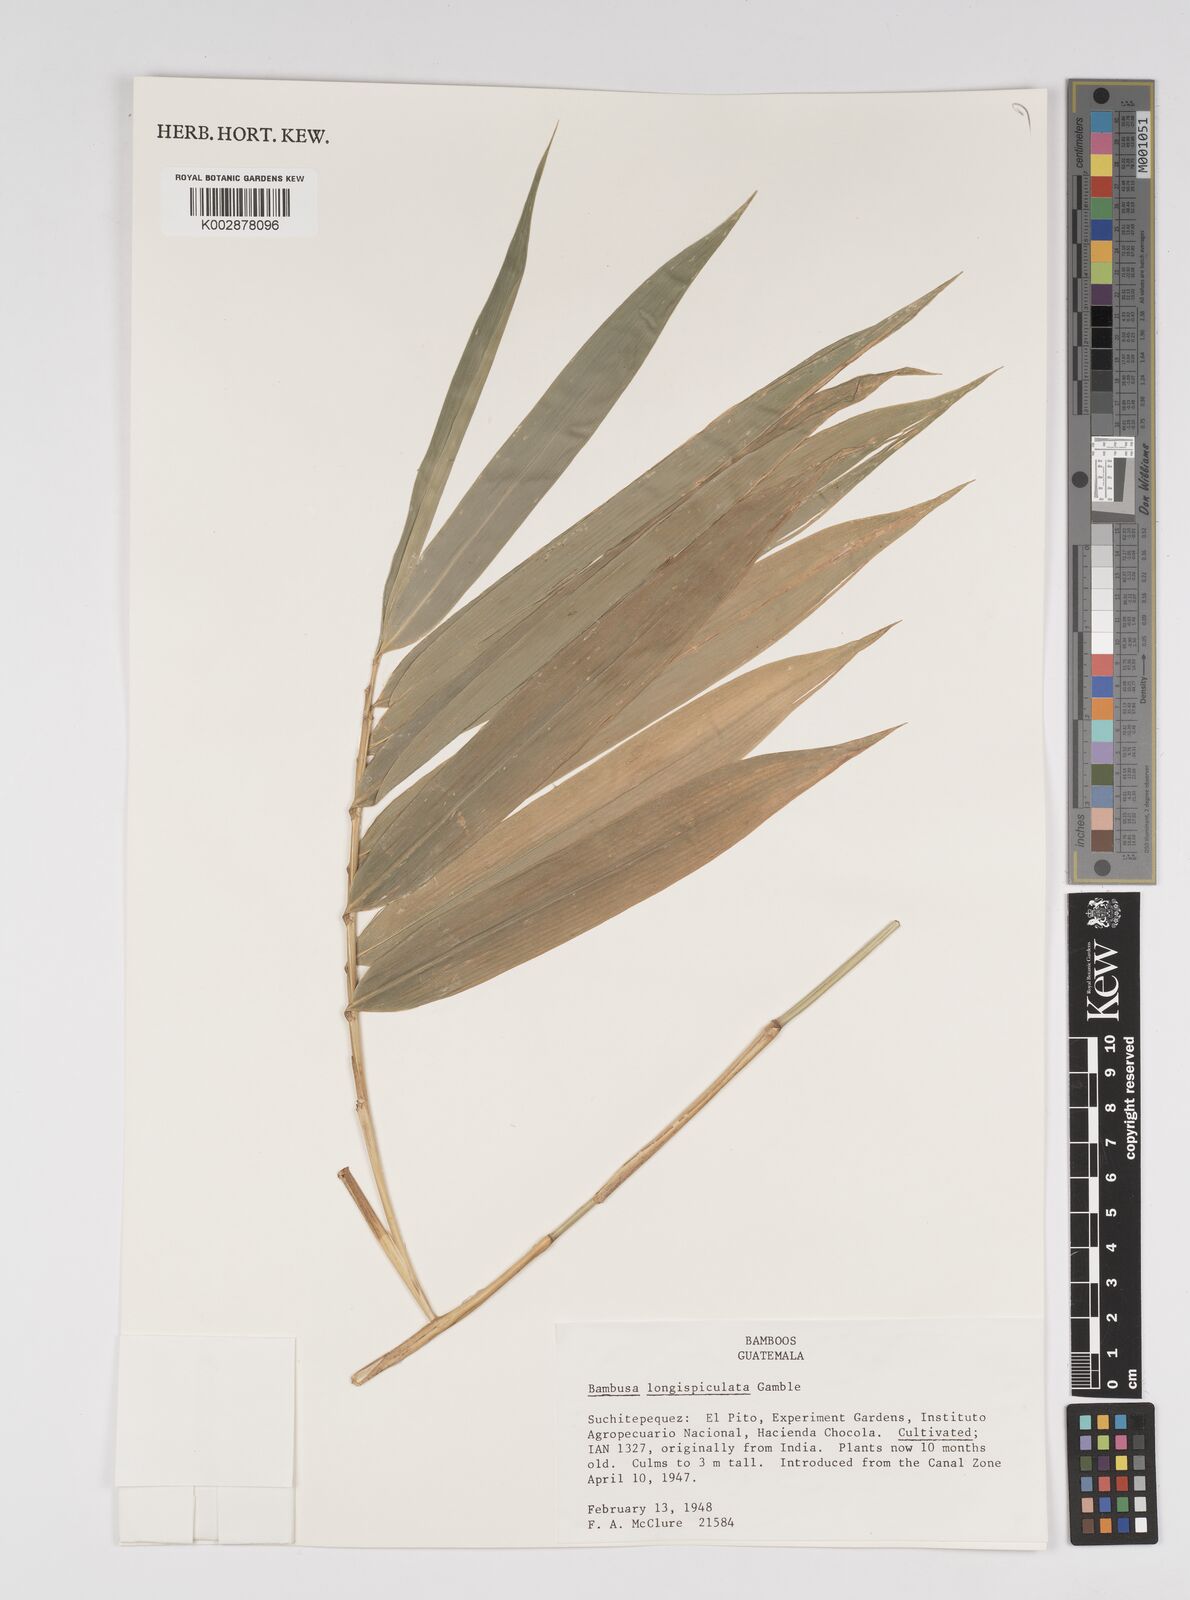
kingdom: Plantae
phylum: Tracheophyta
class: Liliopsida
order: Poales
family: Poaceae
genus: Bambusa
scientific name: Bambusa longispiculata
